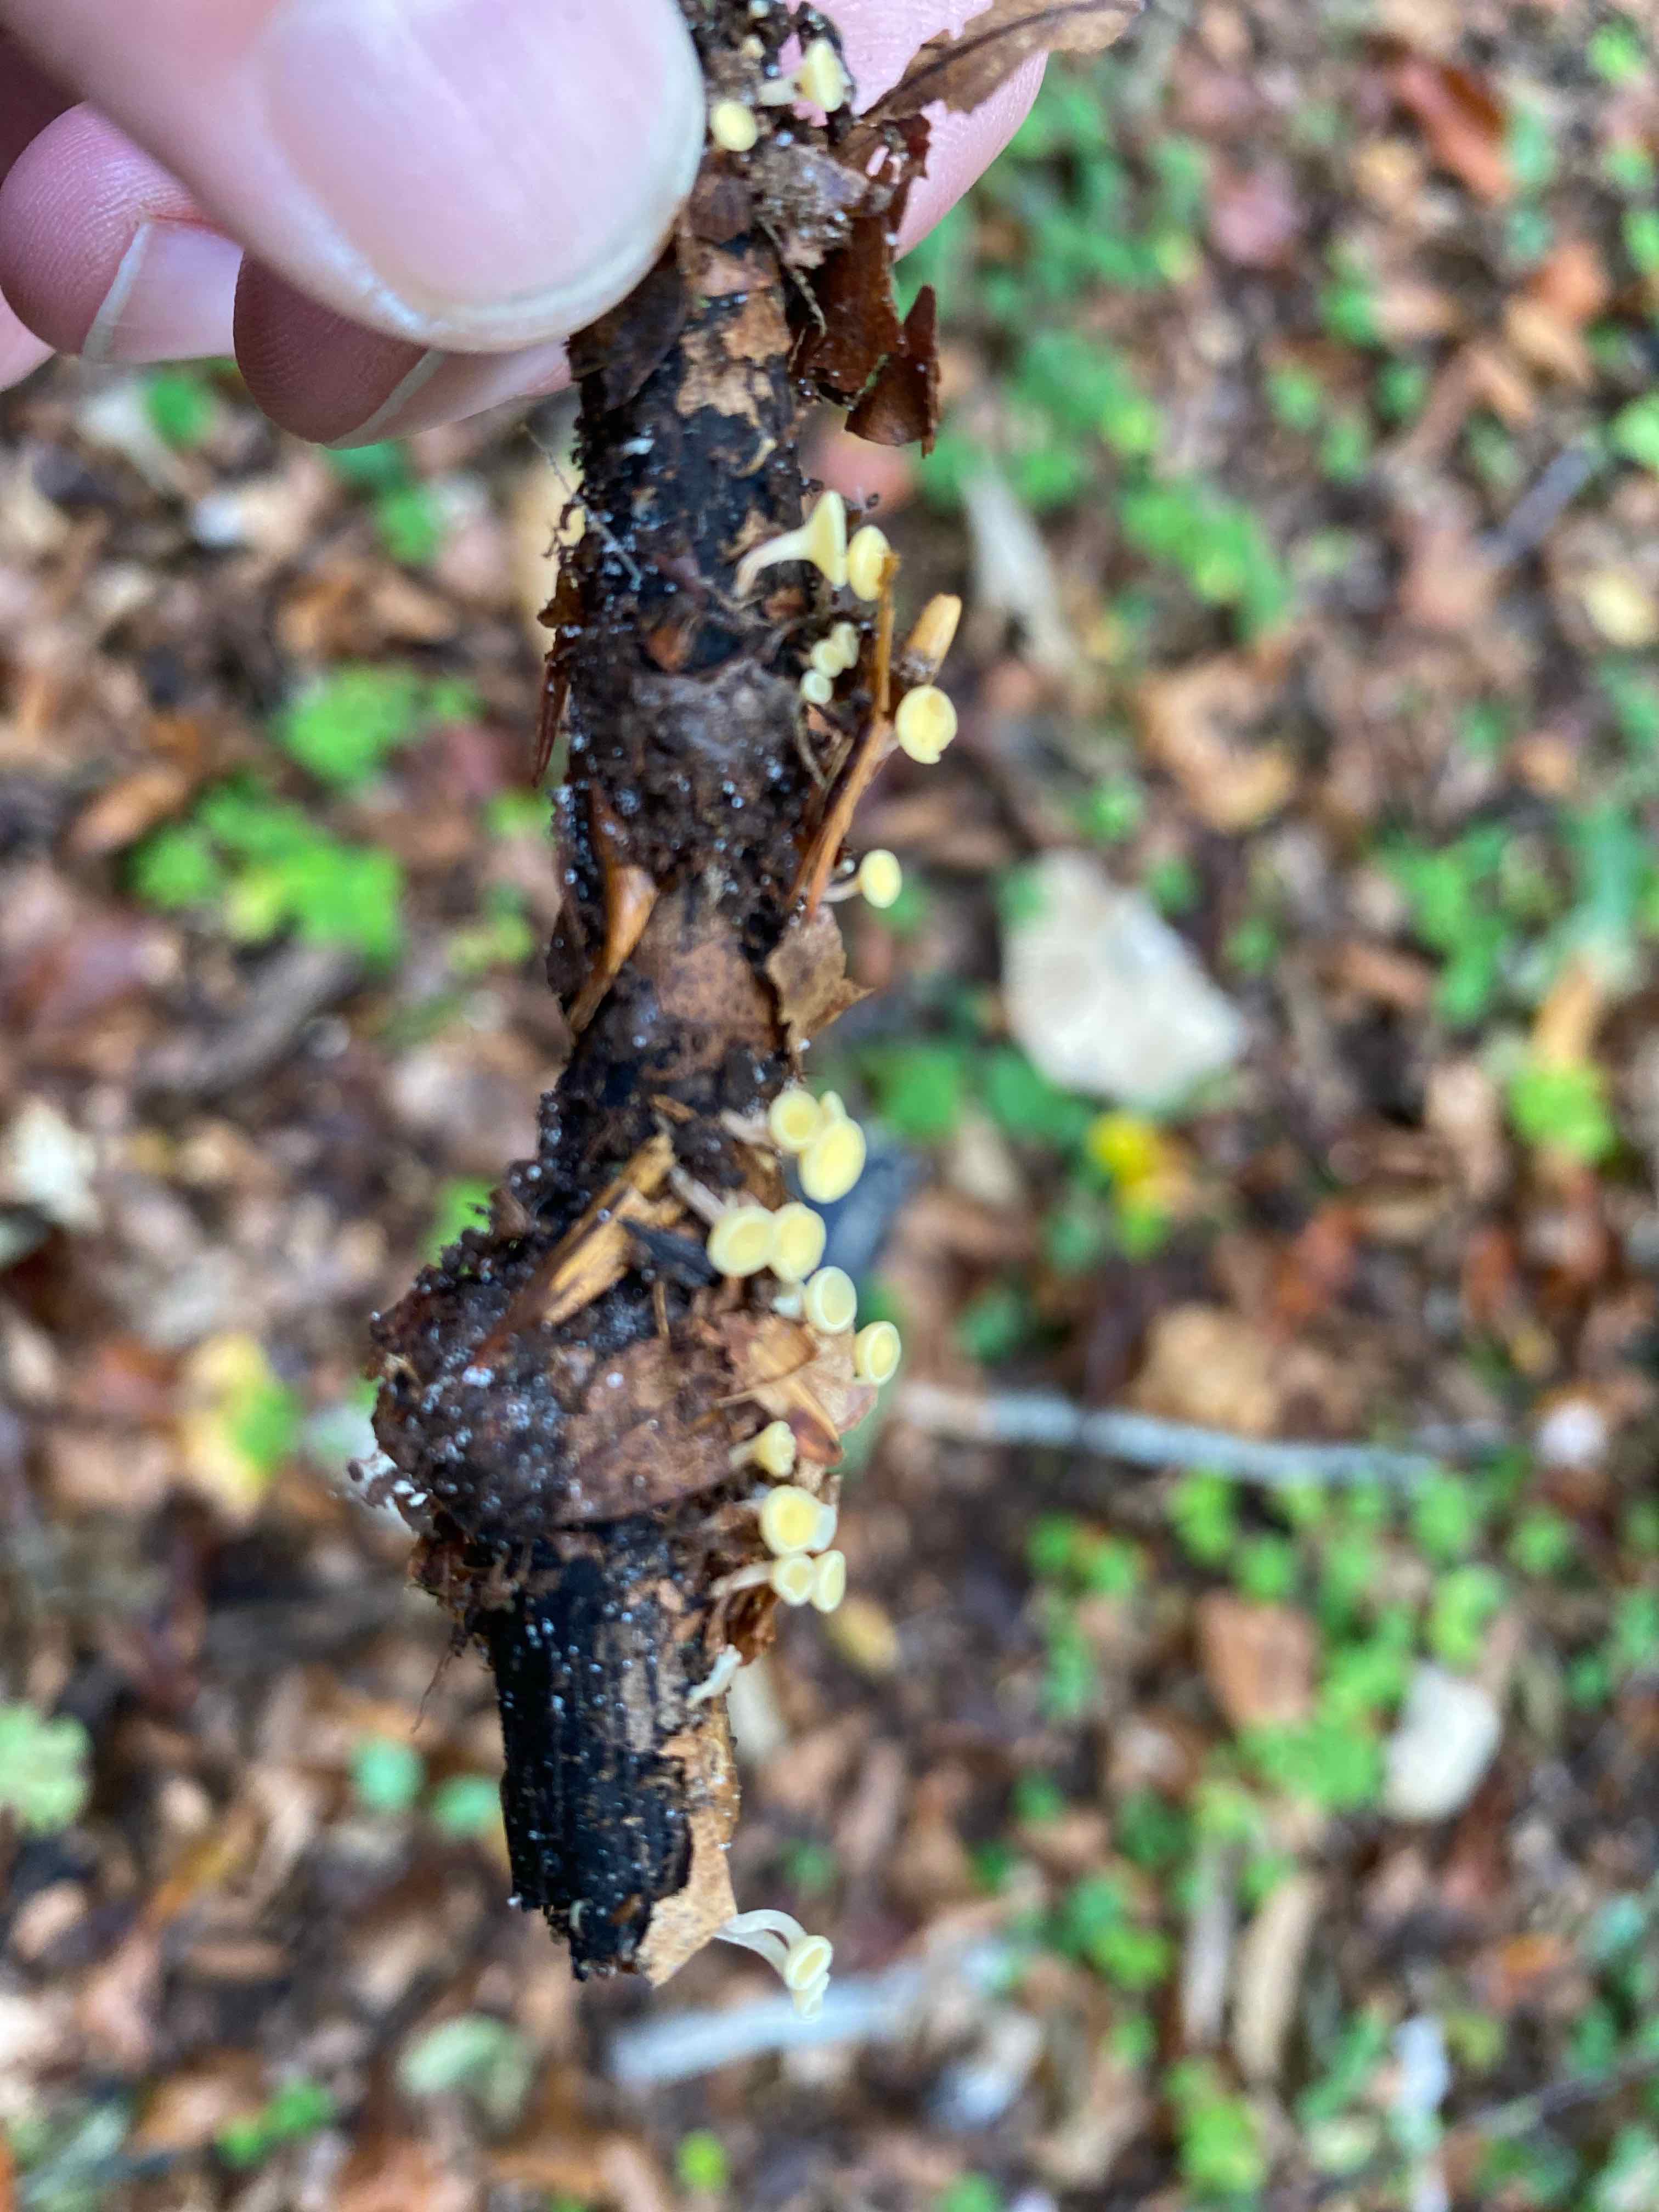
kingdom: Fungi
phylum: Ascomycota
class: Leotiomycetes
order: Helotiales
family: Helotiaceae
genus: Hymenoscyphus
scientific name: Hymenoscyphus
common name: stilkskive
